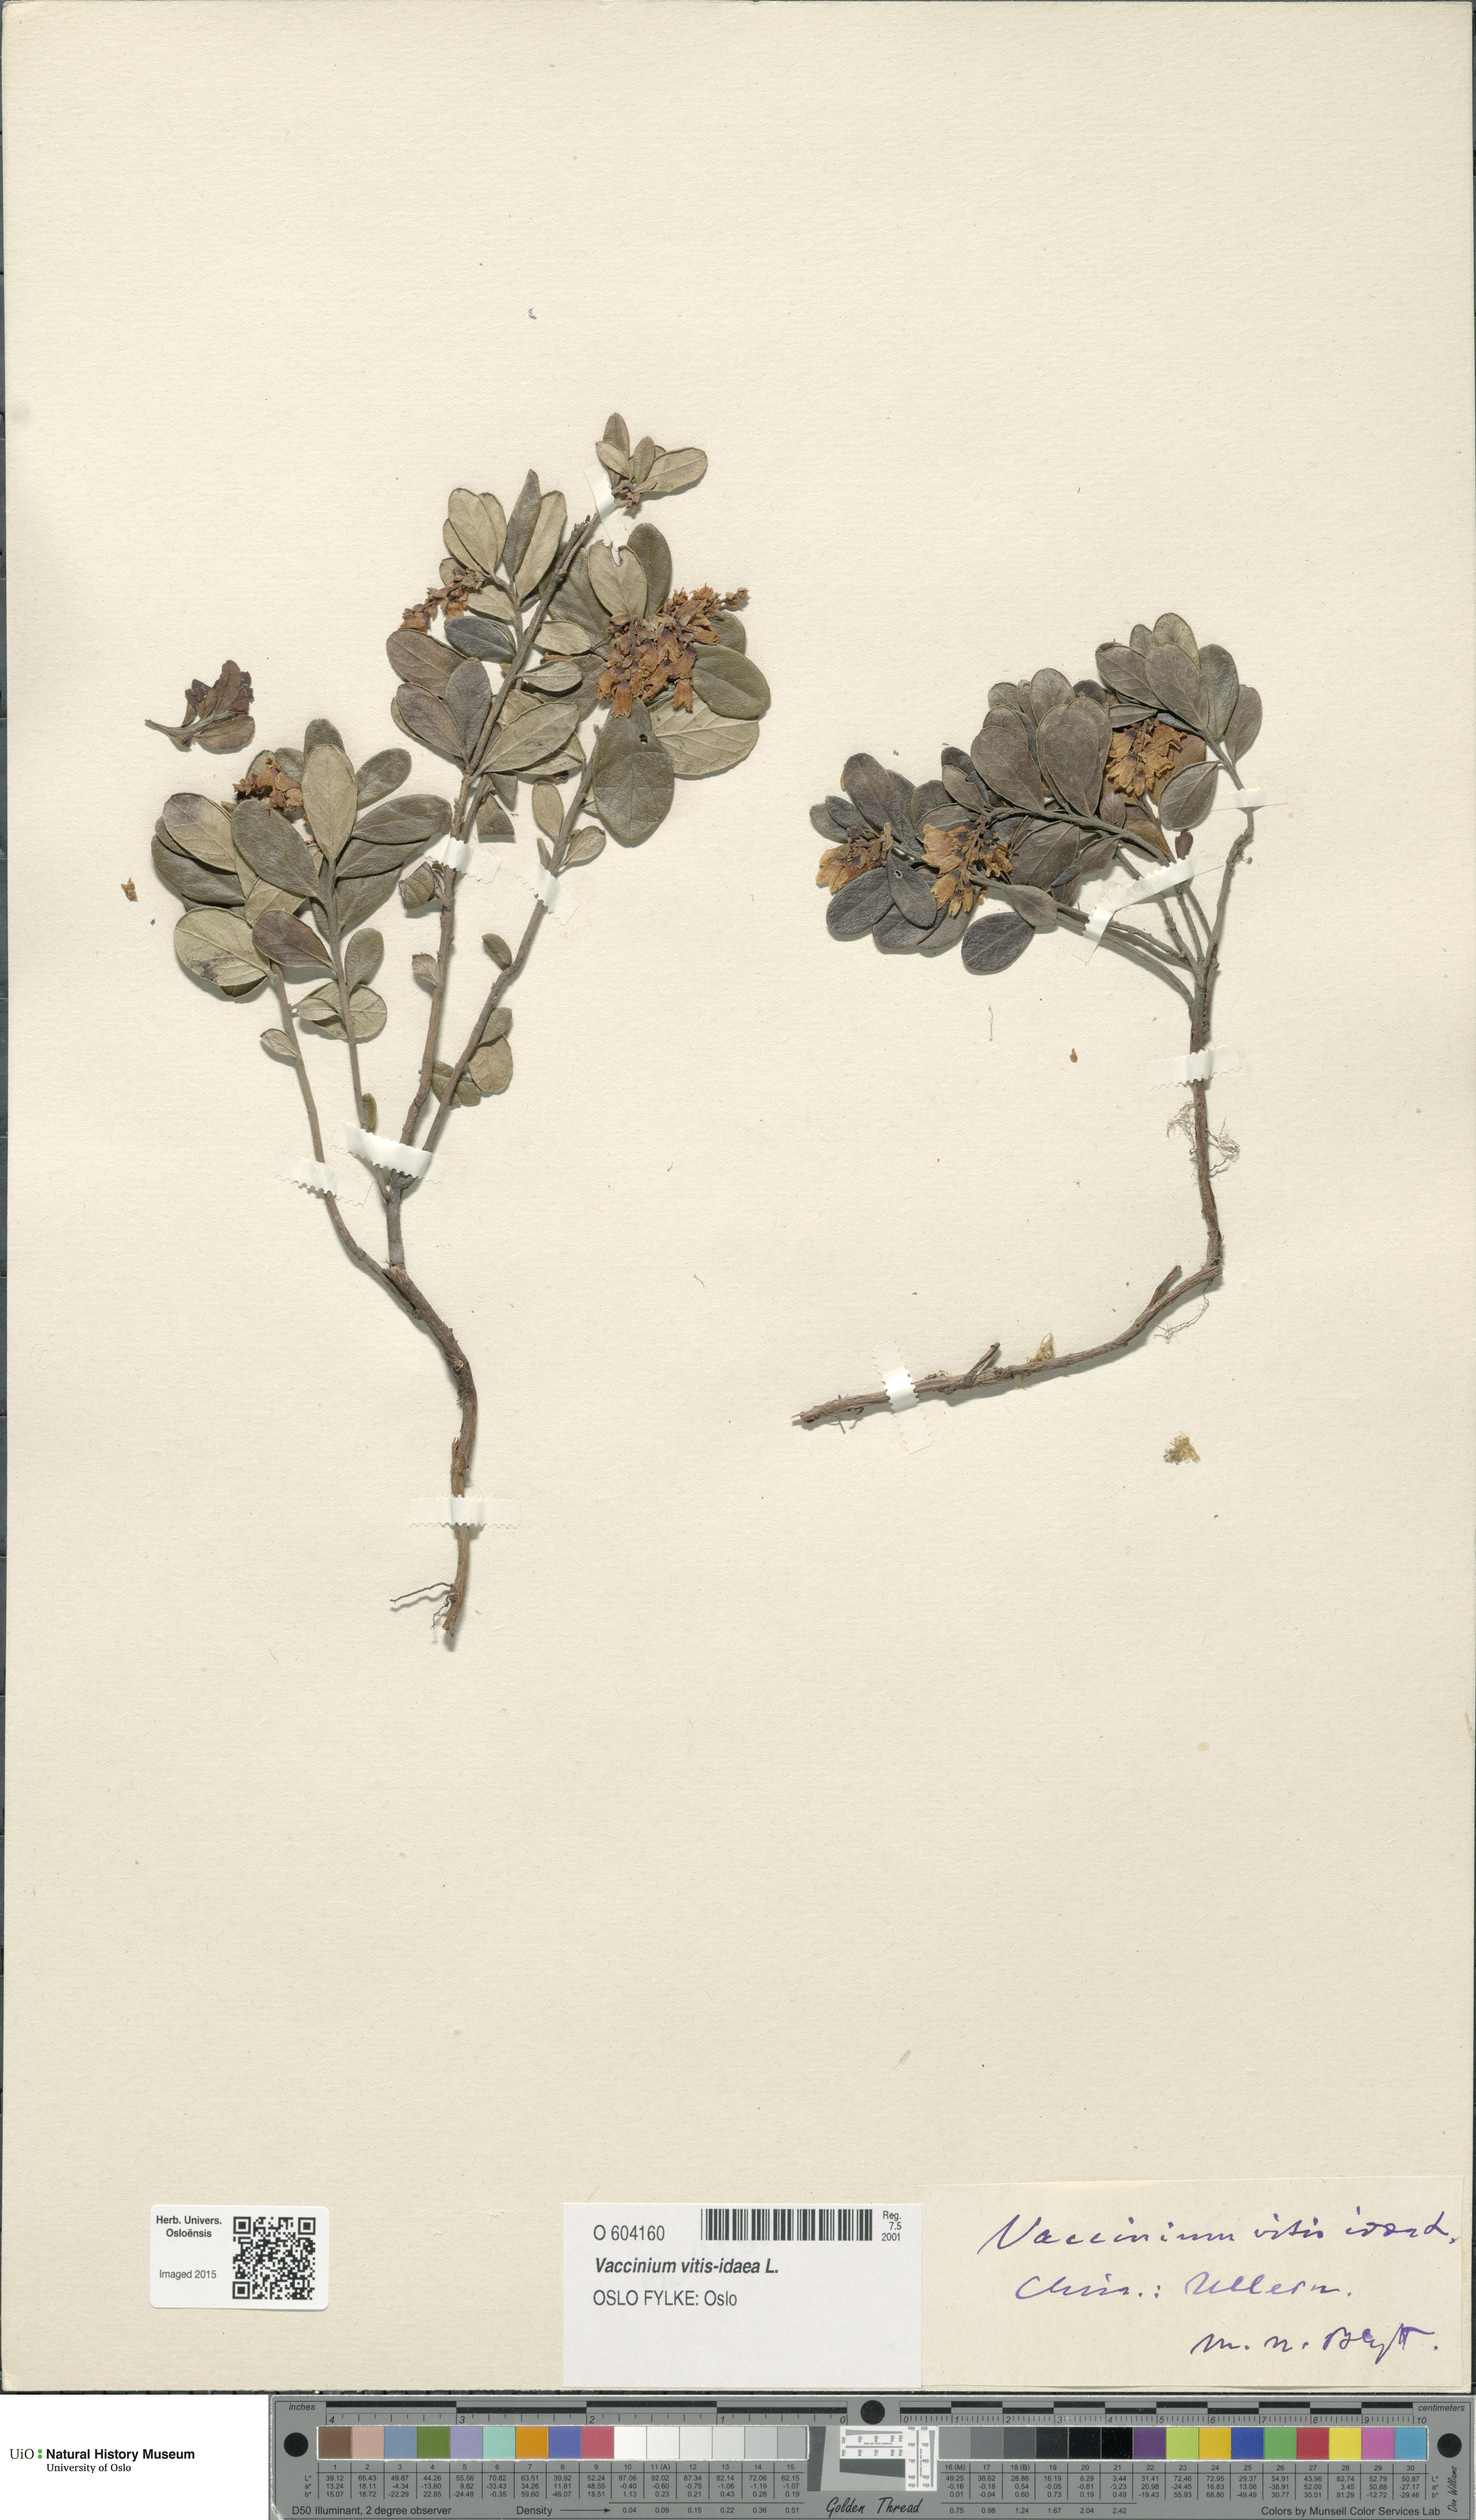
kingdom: Plantae
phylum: Tracheophyta
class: Magnoliopsida
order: Ericales
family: Ericaceae
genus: Vaccinium
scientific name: Vaccinium vitis-idaea
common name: Cowberry
